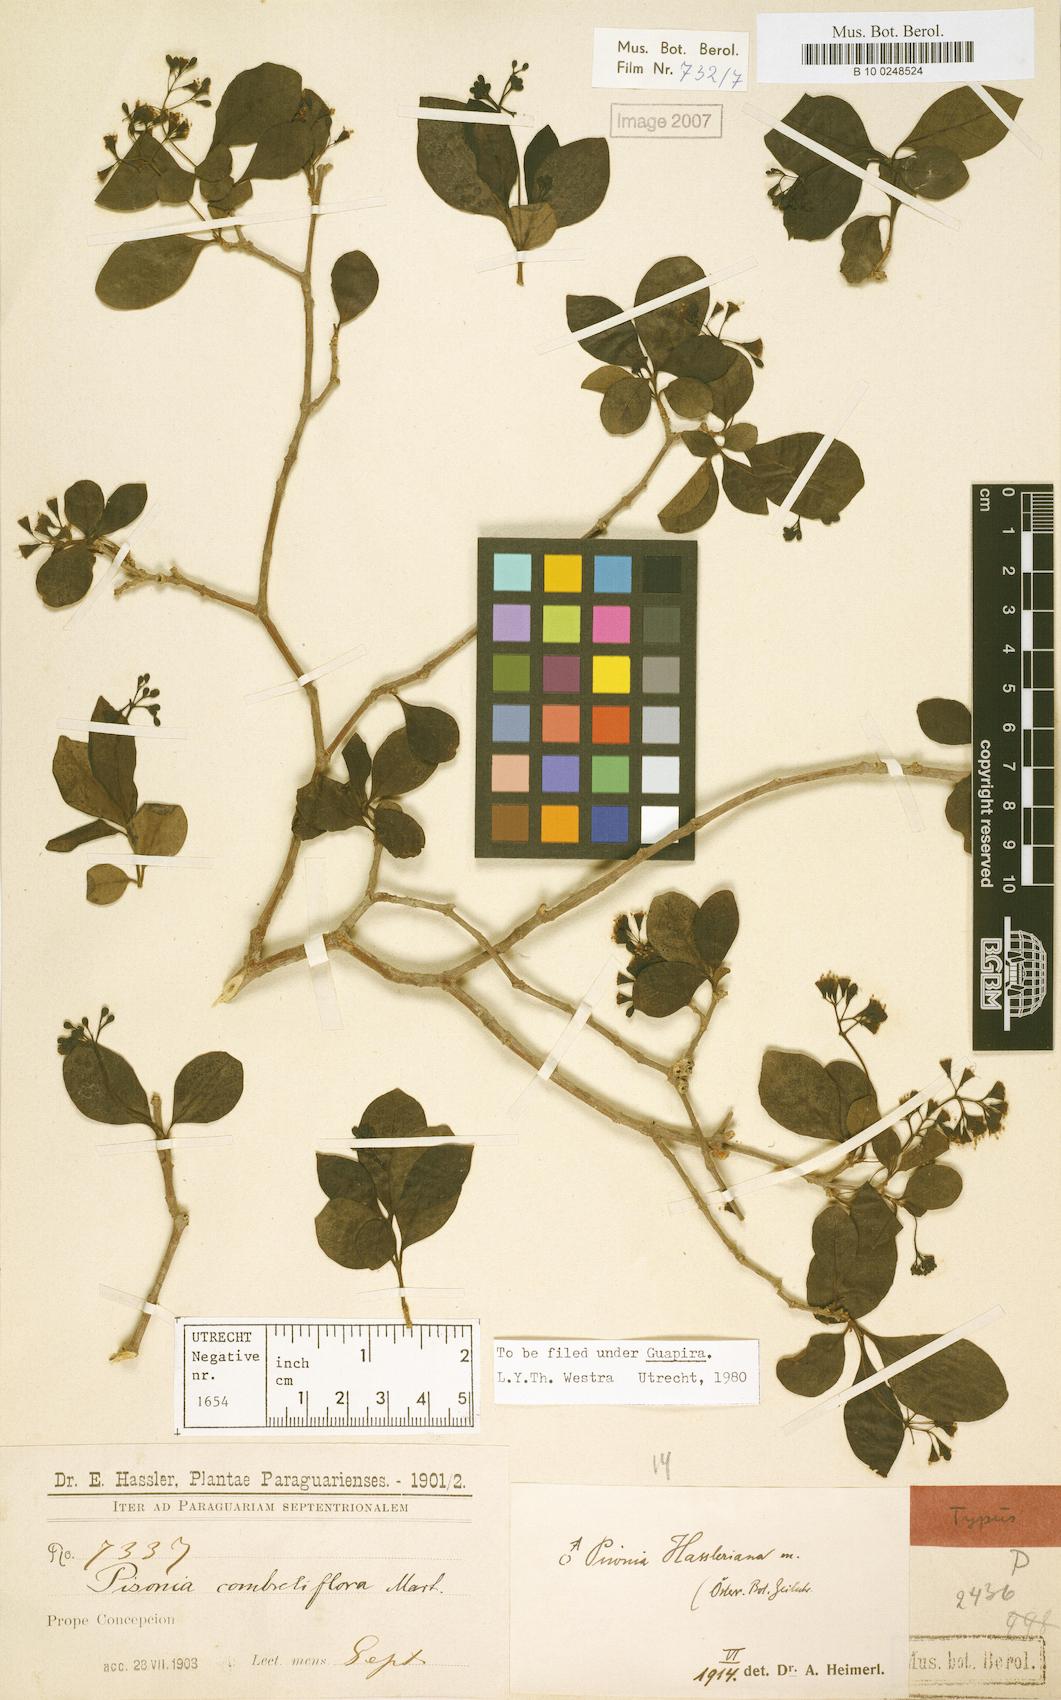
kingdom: Plantae
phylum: Tracheophyta
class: Magnoliopsida
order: Caryophyllales
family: Nyctaginaceae
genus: Guapira
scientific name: Guapira hasslerana
